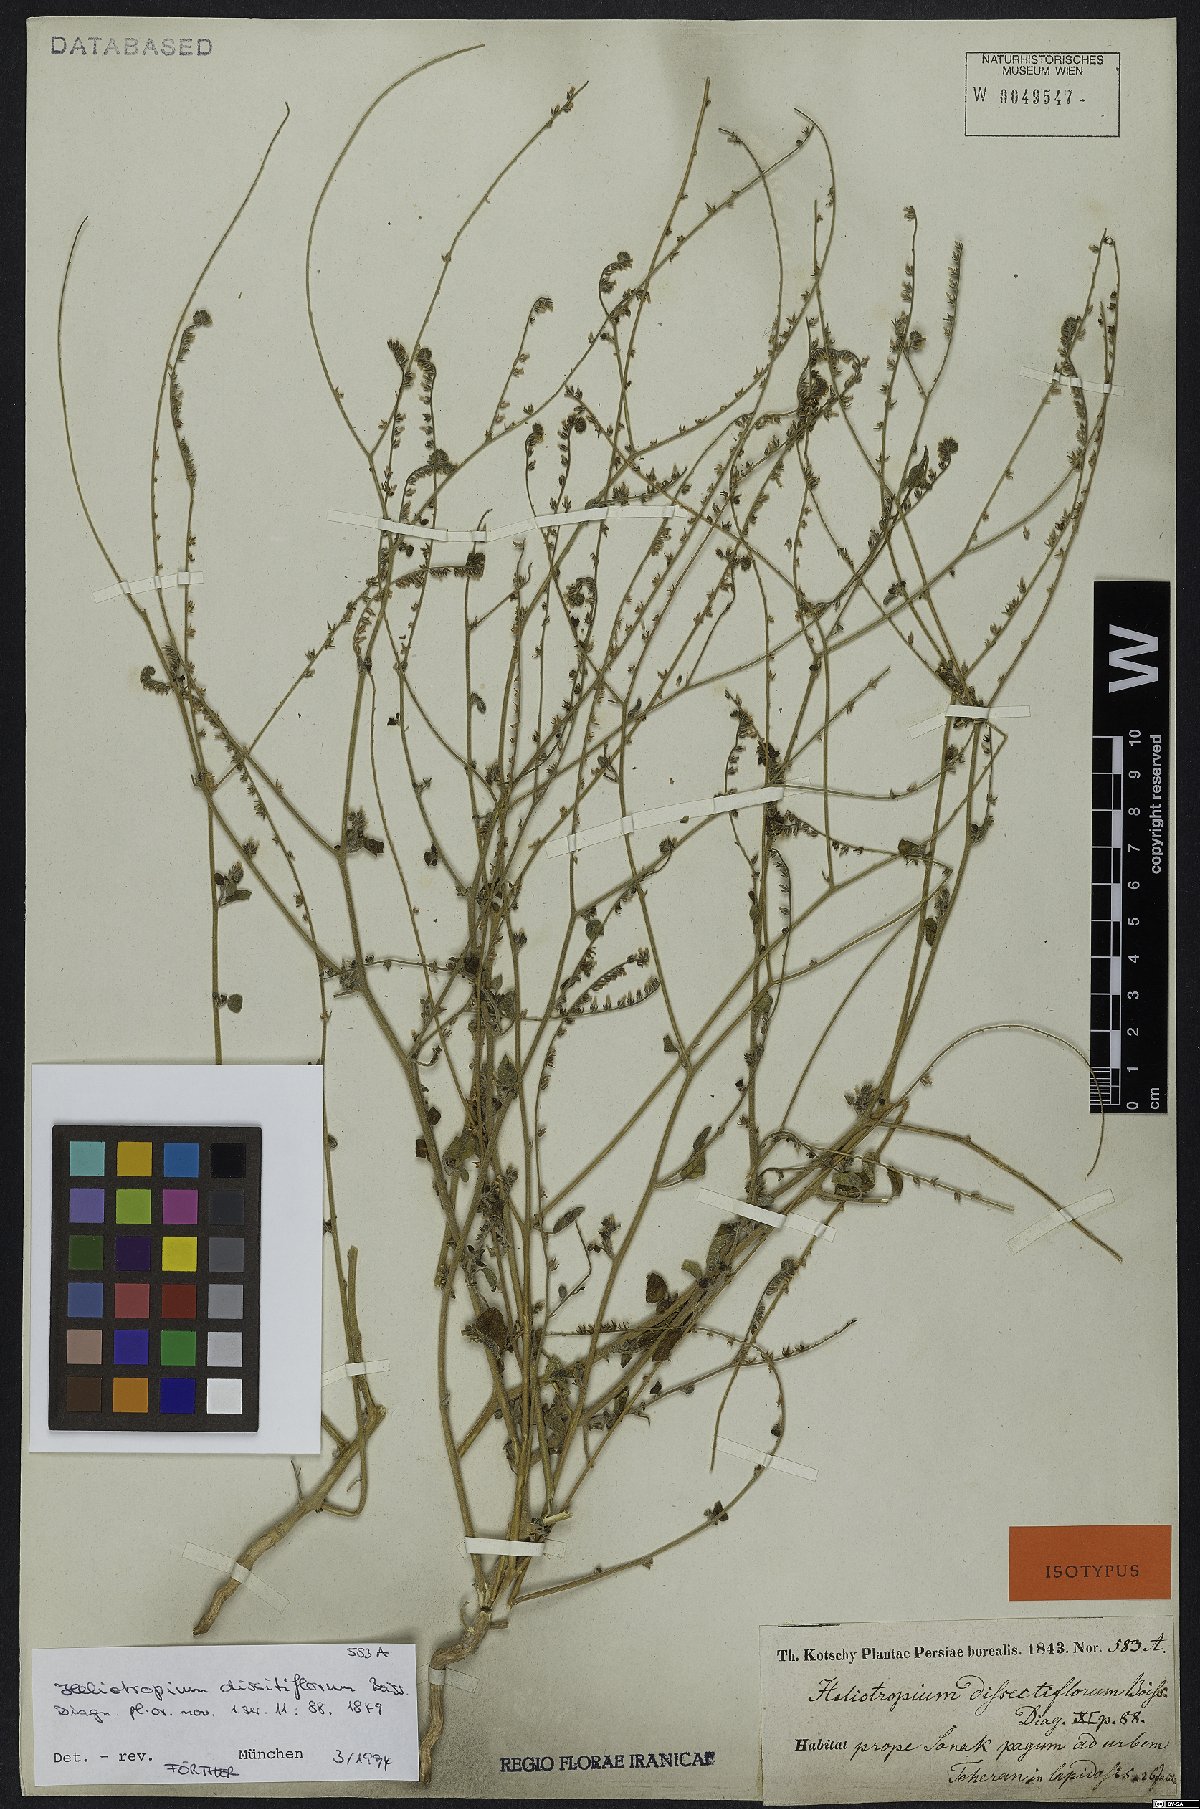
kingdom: Plantae
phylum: Tracheophyta
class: Magnoliopsida
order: Boraginales
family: Heliotropiaceae
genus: Heliotropium
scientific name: Heliotropium dissitiflorum
